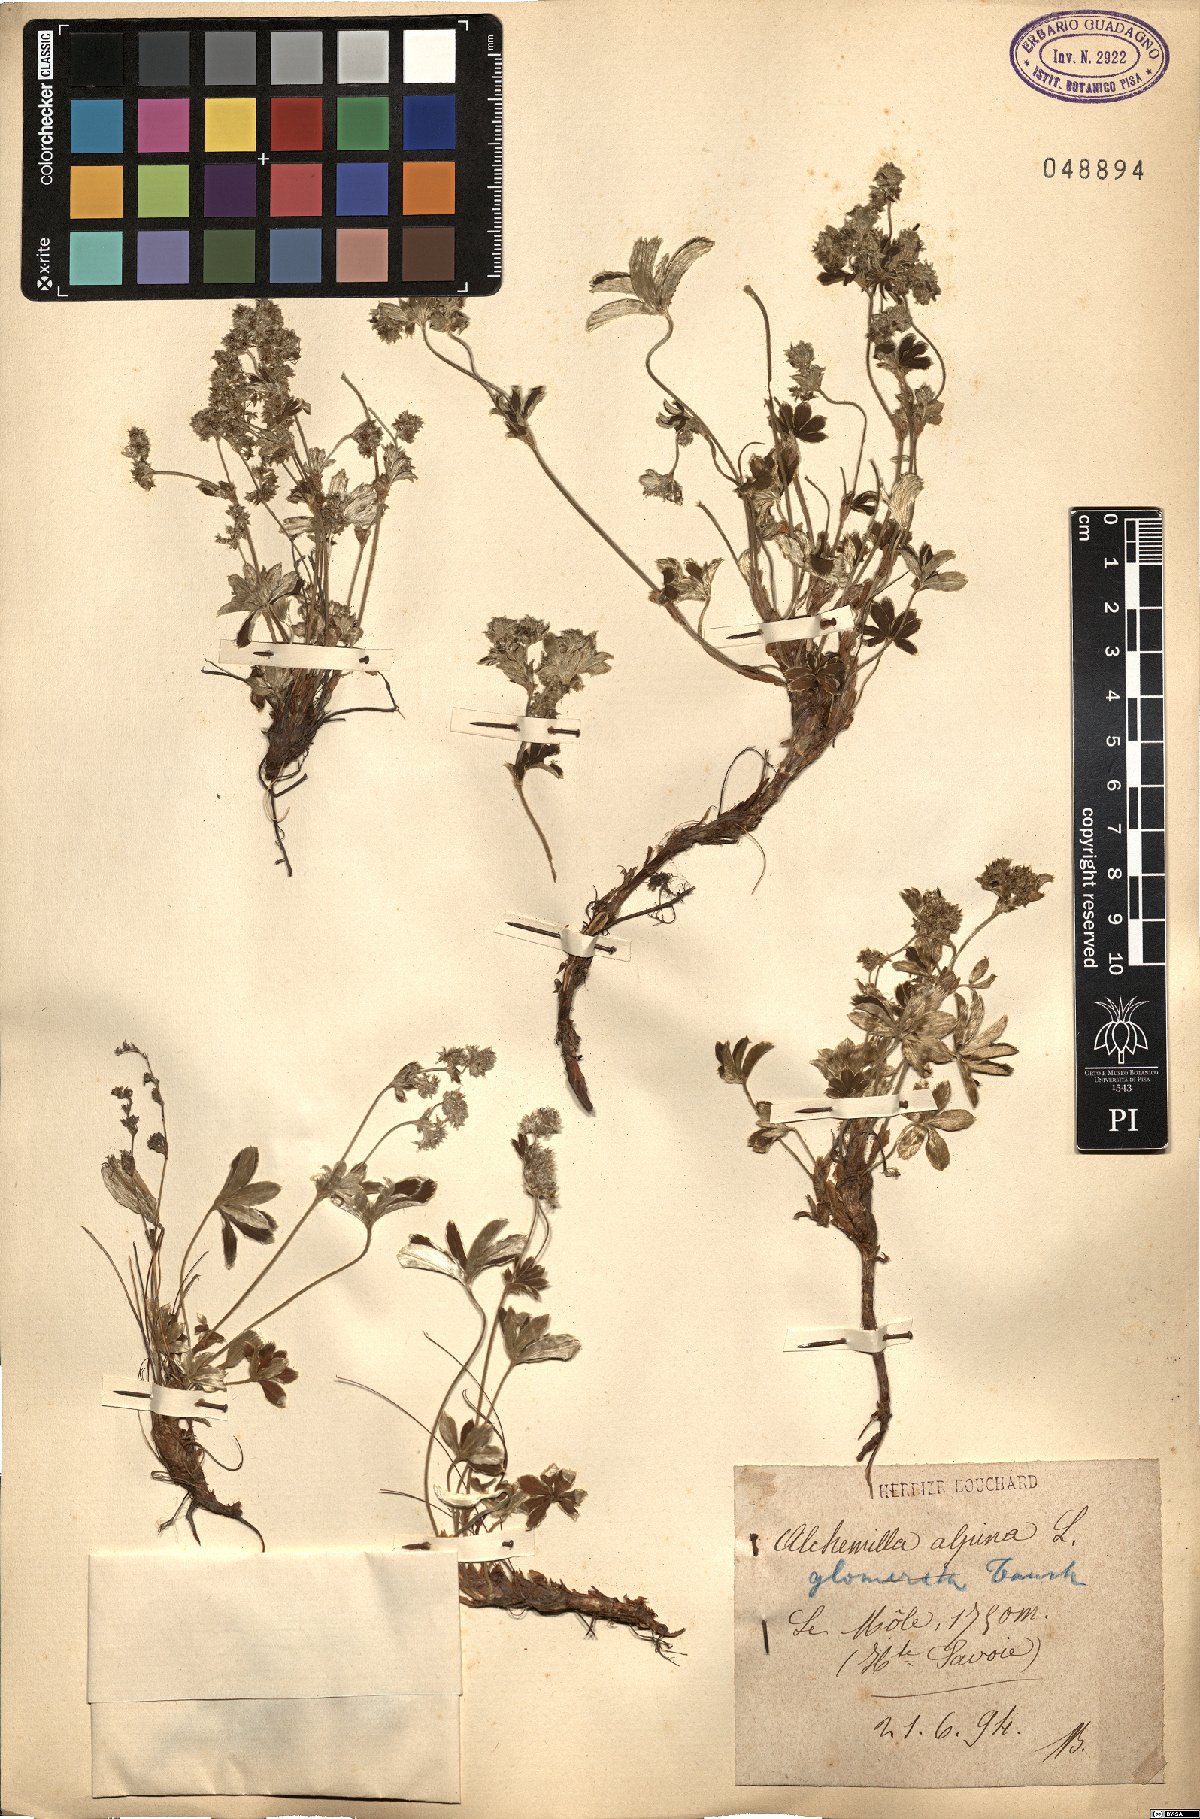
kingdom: Plantae
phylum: Tracheophyta
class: Magnoliopsida
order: Rosales
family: Rosaceae
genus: Alchemilla
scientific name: Alchemilla alpina
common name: Alpine lady's-mantle
